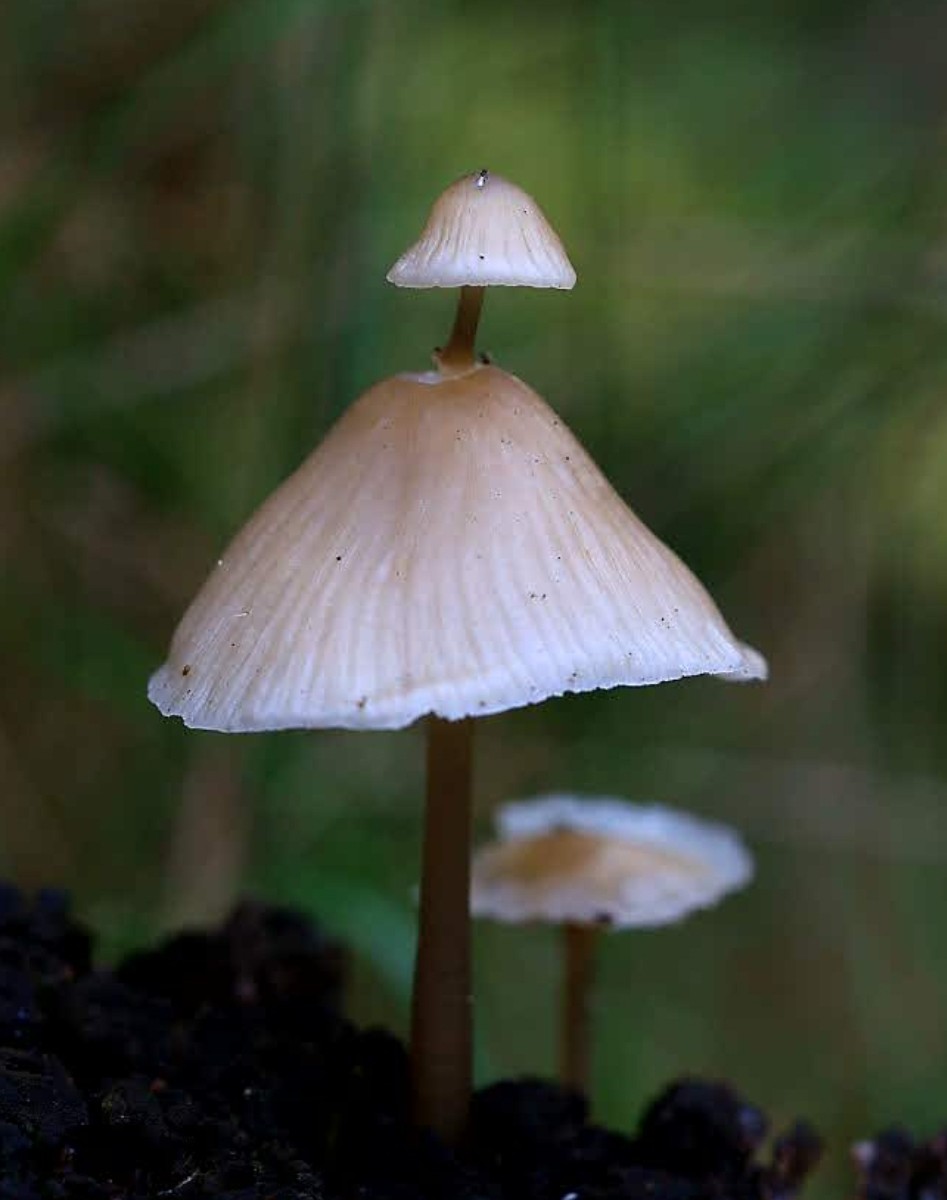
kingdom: Fungi
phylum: Basidiomycota
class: Agaricomycetes
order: Agaricales
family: Mycenaceae
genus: Mycena
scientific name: Mycena galericulata
